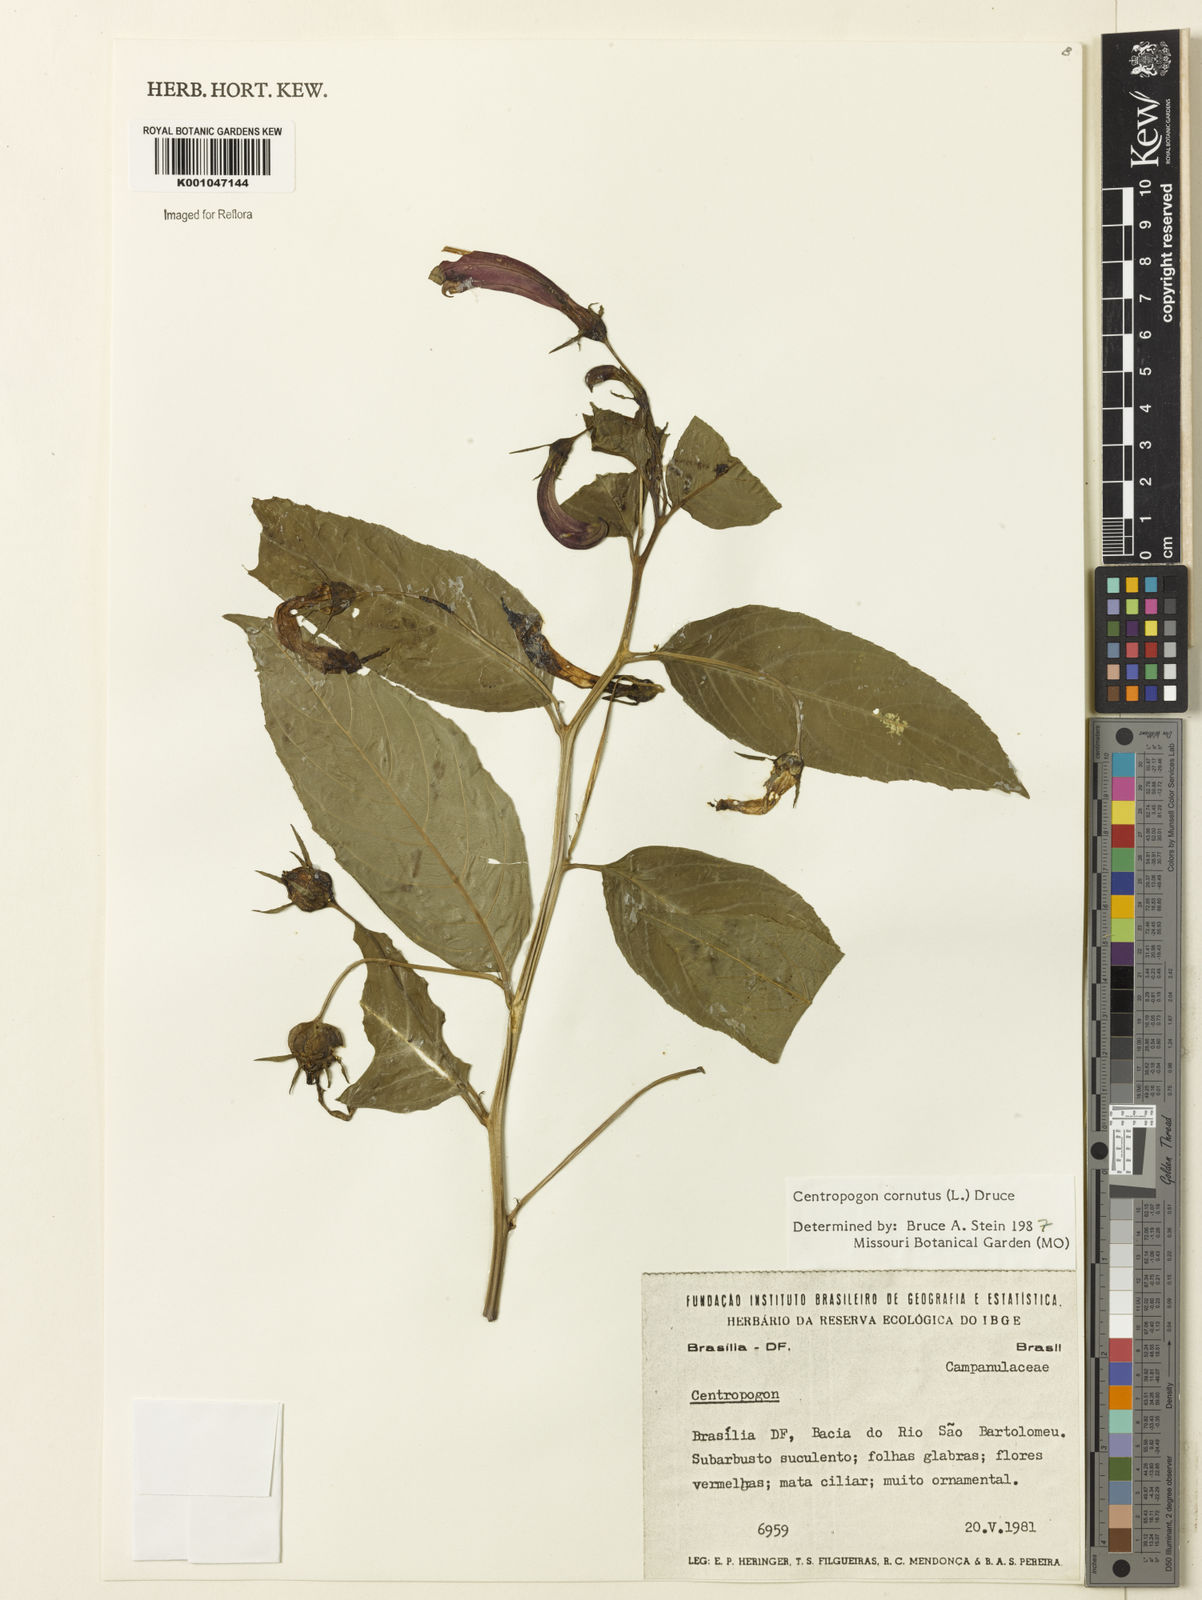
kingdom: Plantae
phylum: Tracheophyta
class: Magnoliopsida
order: Asterales
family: Campanulaceae
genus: Centropogon
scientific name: Centropogon cornutus
